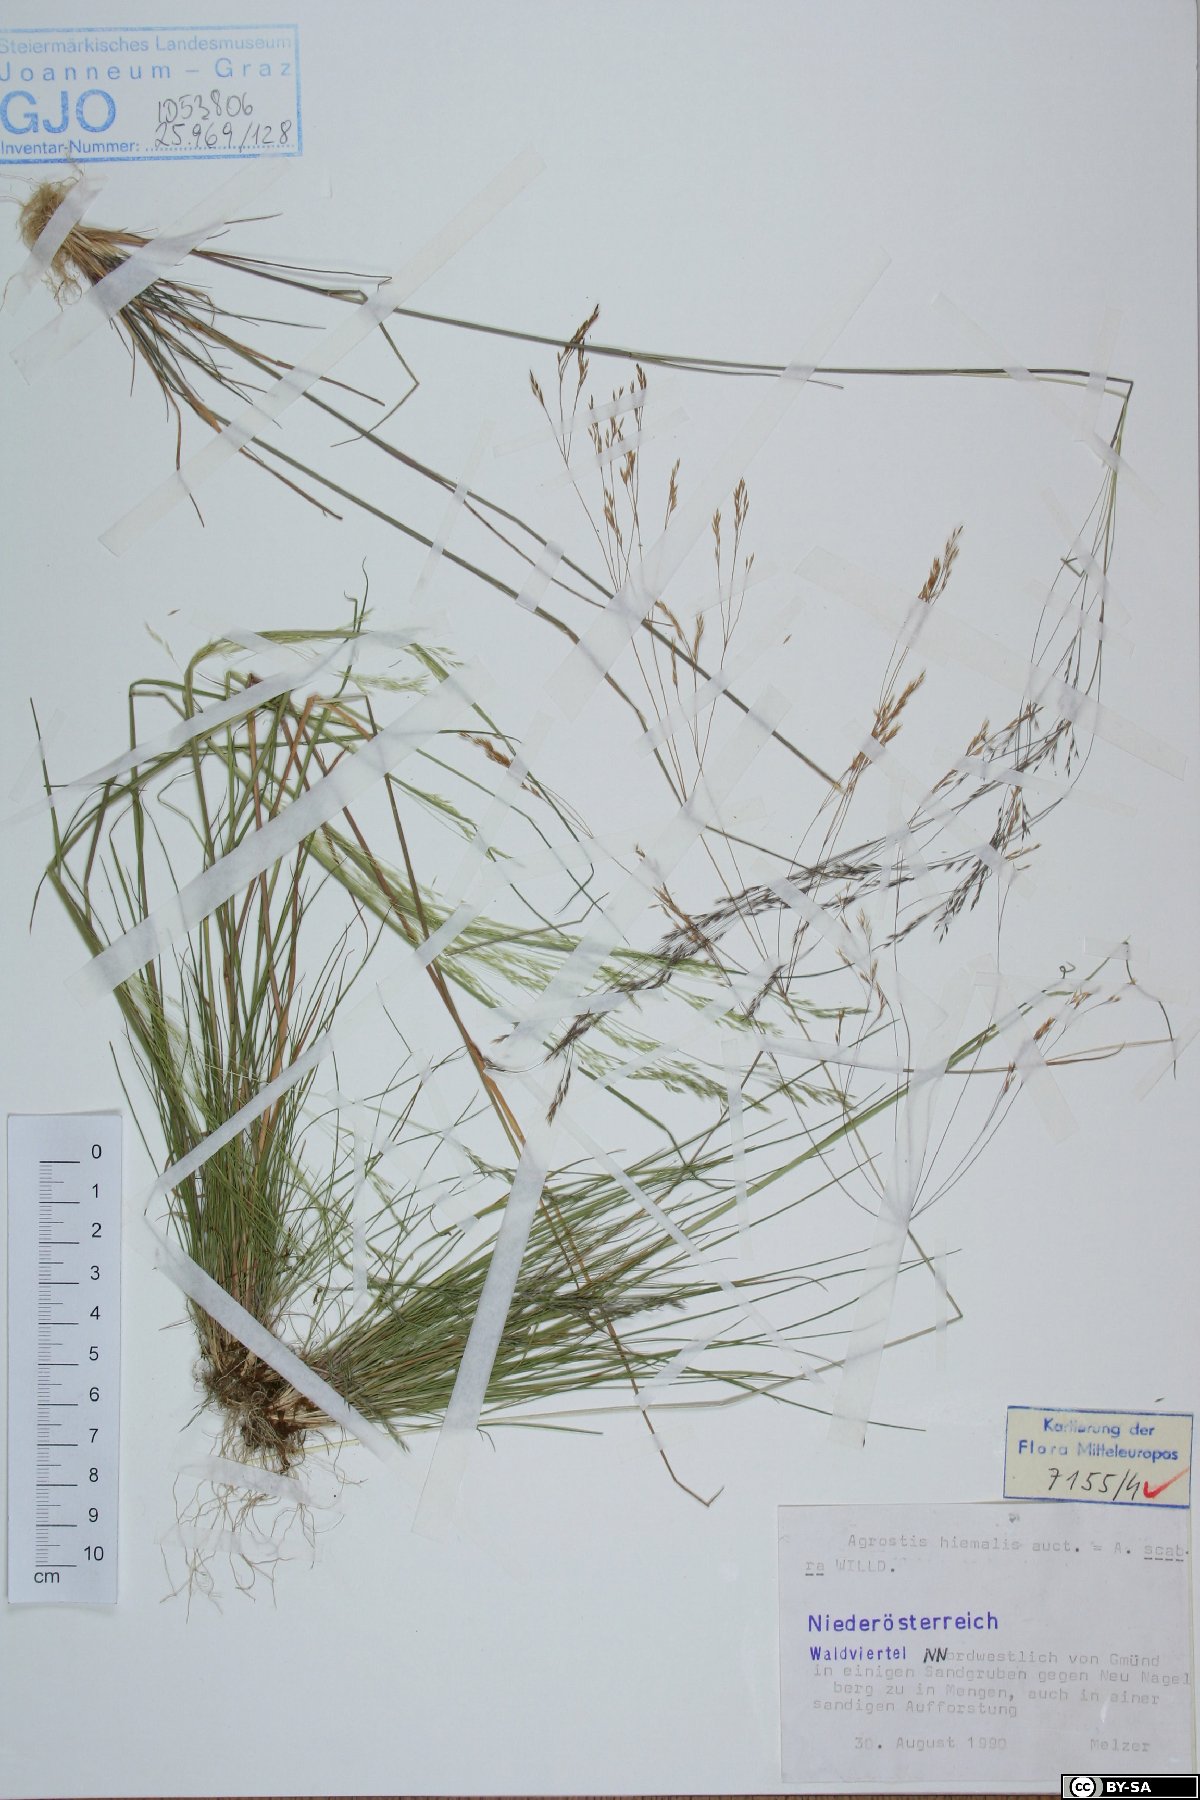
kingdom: Plantae
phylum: Tracheophyta
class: Liliopsida
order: Poales
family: Poaceae
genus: Agrostis
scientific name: Agrostis scabra
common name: Rough bent
